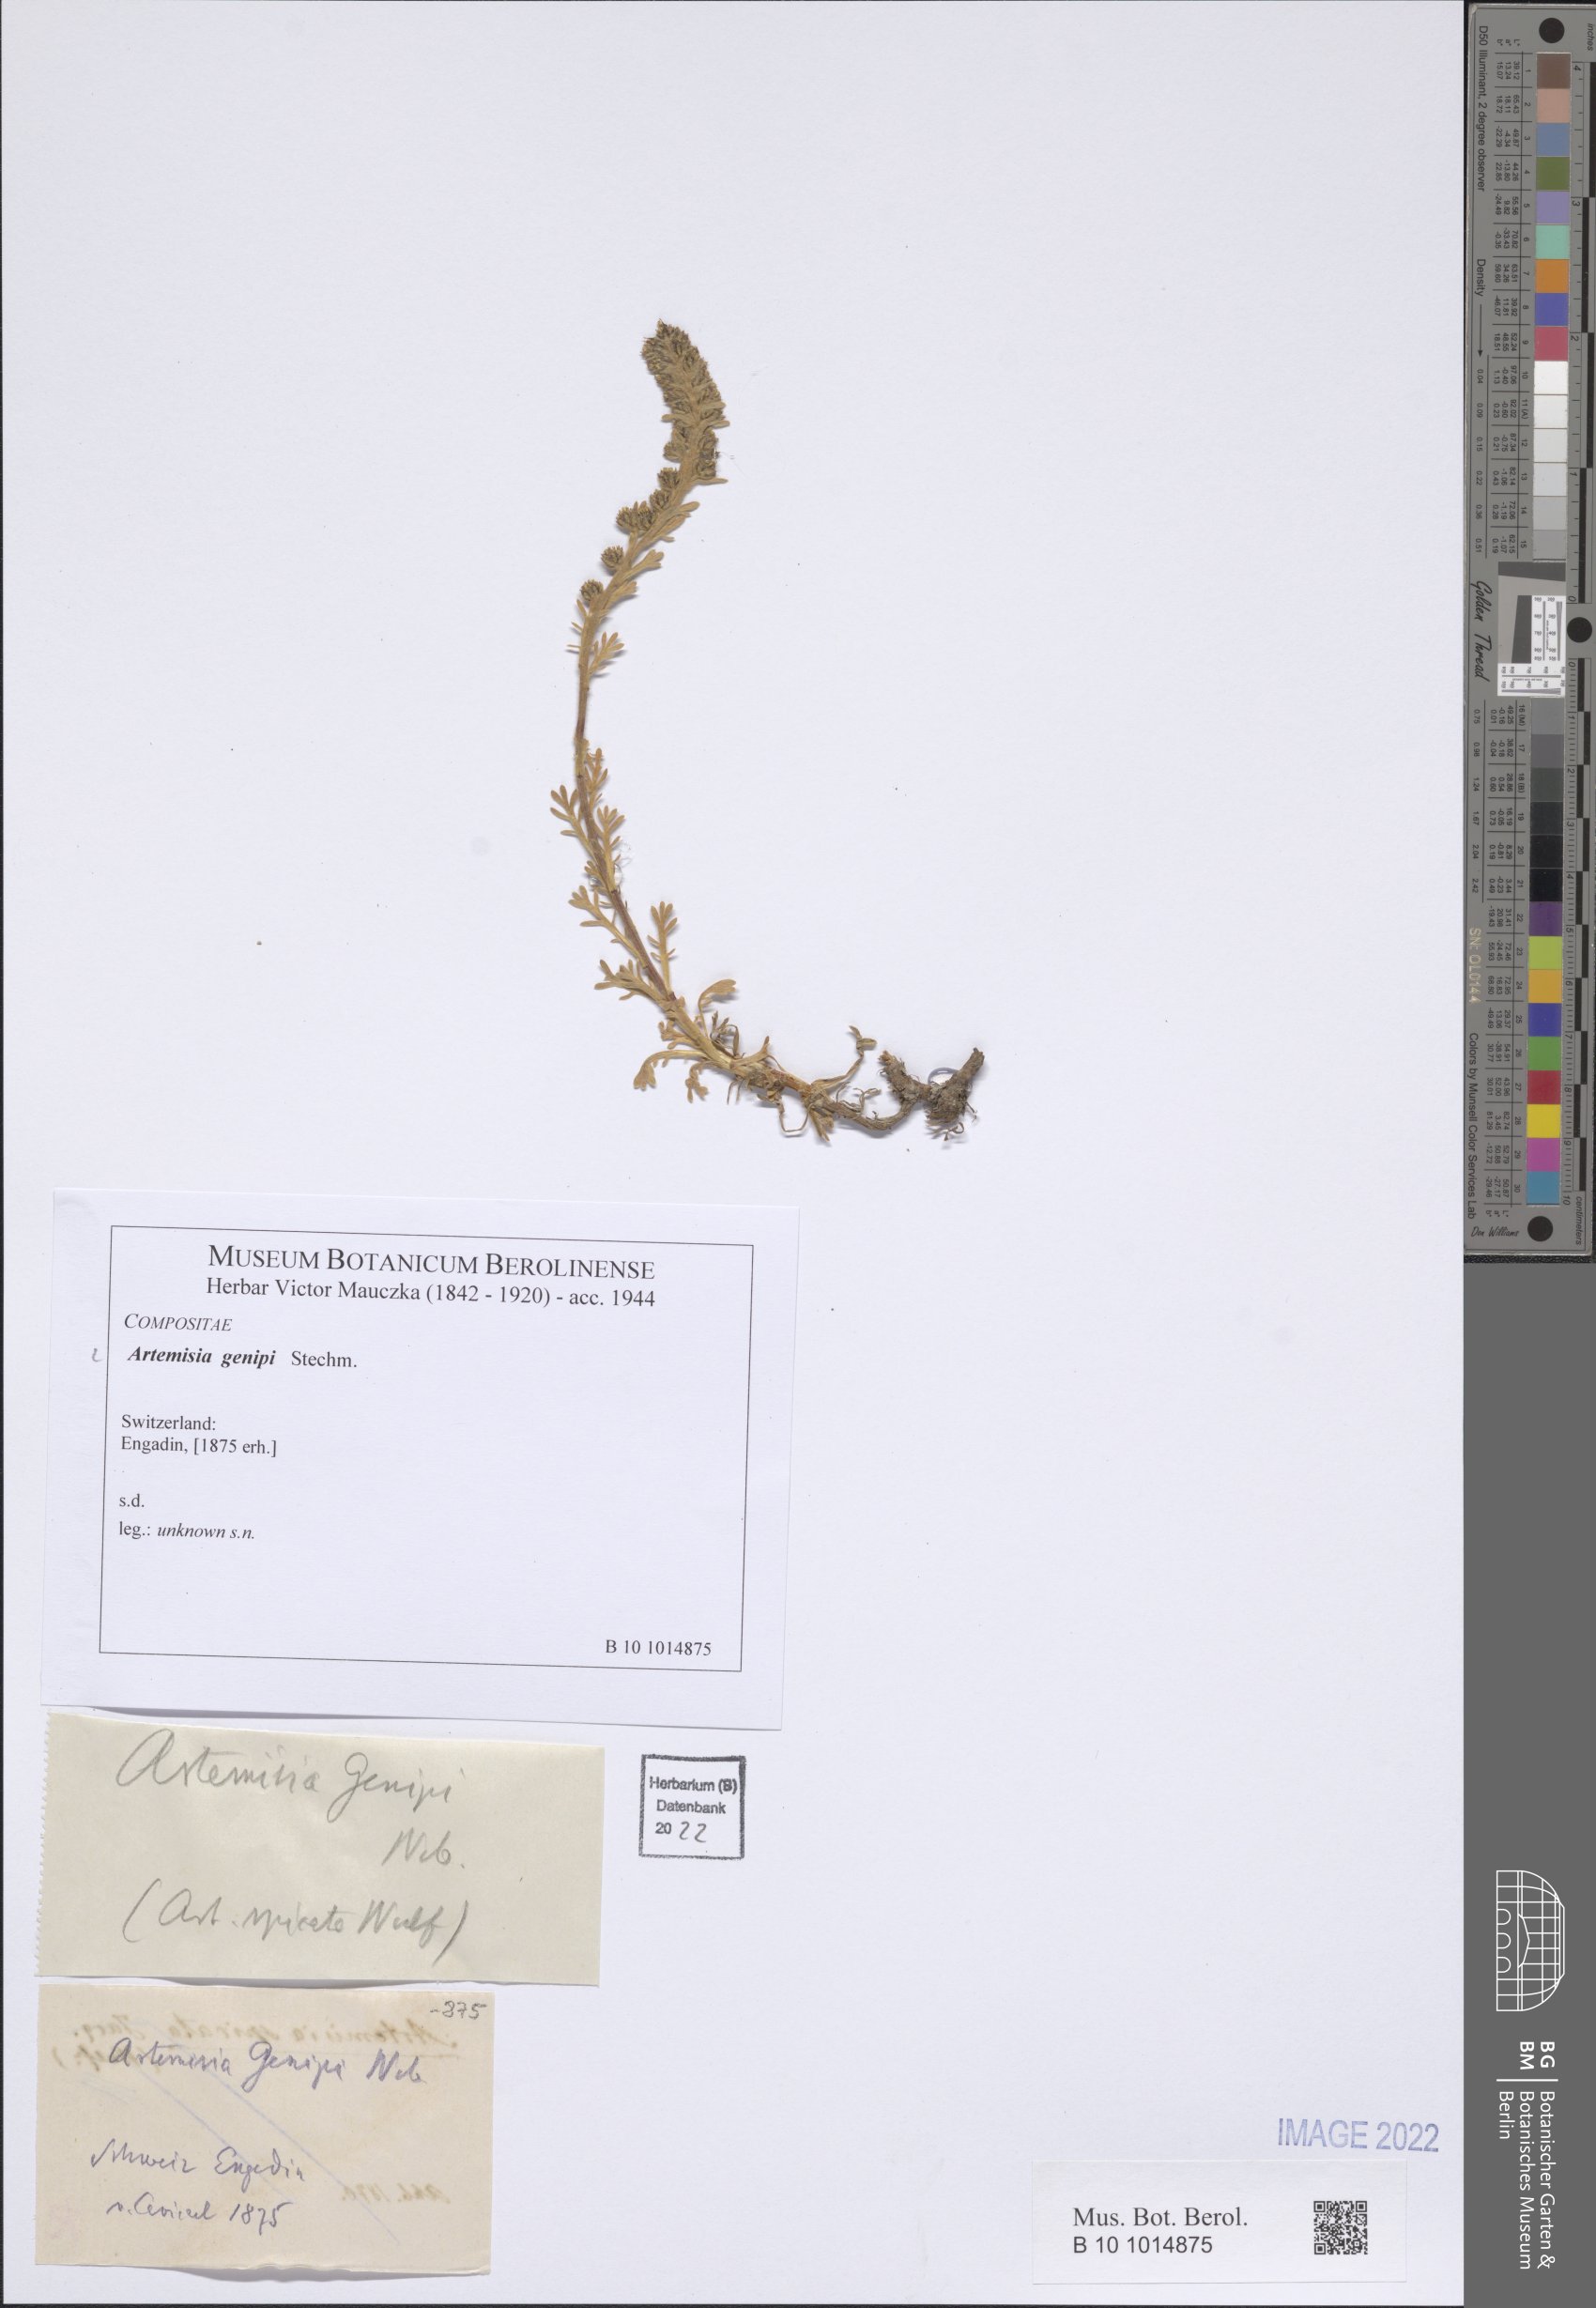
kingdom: Plantae
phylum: Tracheophyta
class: Magnoliopsida
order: Asterales
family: Asteraceae
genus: Artemisia
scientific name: Artemisia genipi
